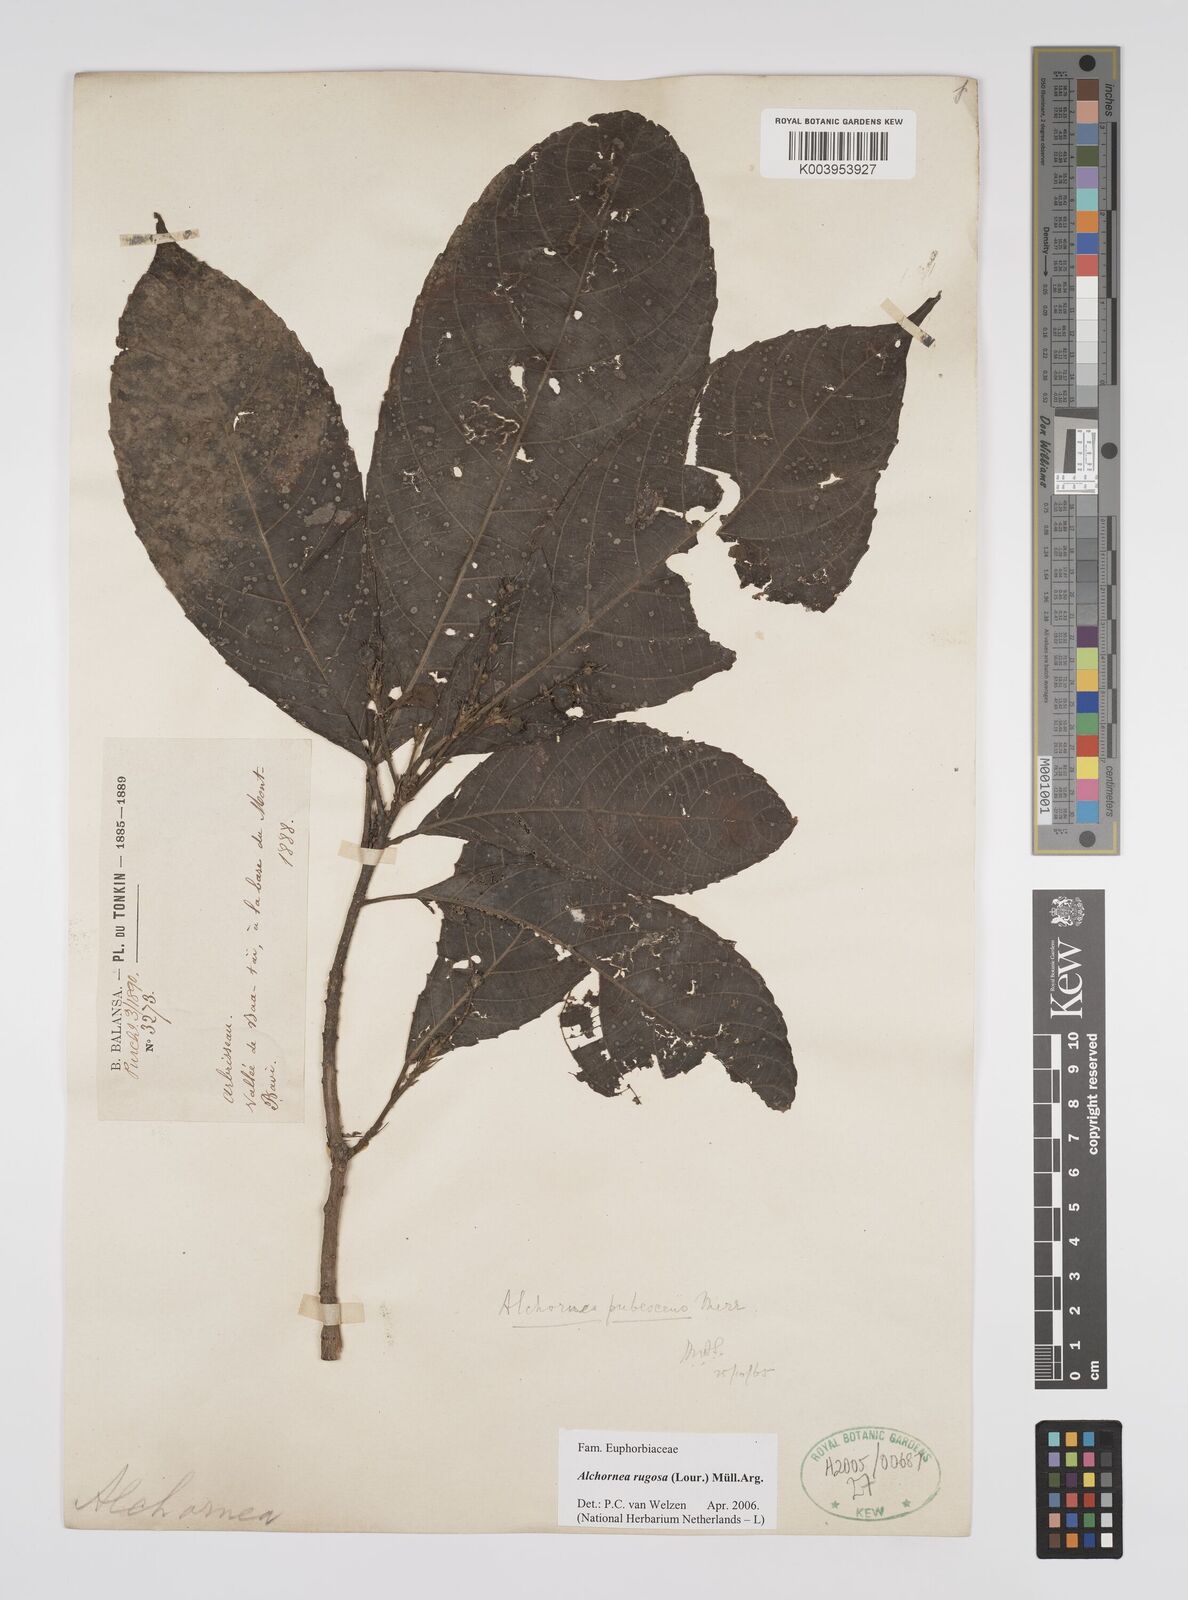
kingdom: Plantae
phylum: Tracheophyta
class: Magnoliopsida
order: Malpighiales
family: Euphorbiaceae
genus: Alchornea
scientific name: Alchornea rugosa
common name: Alchorntree
